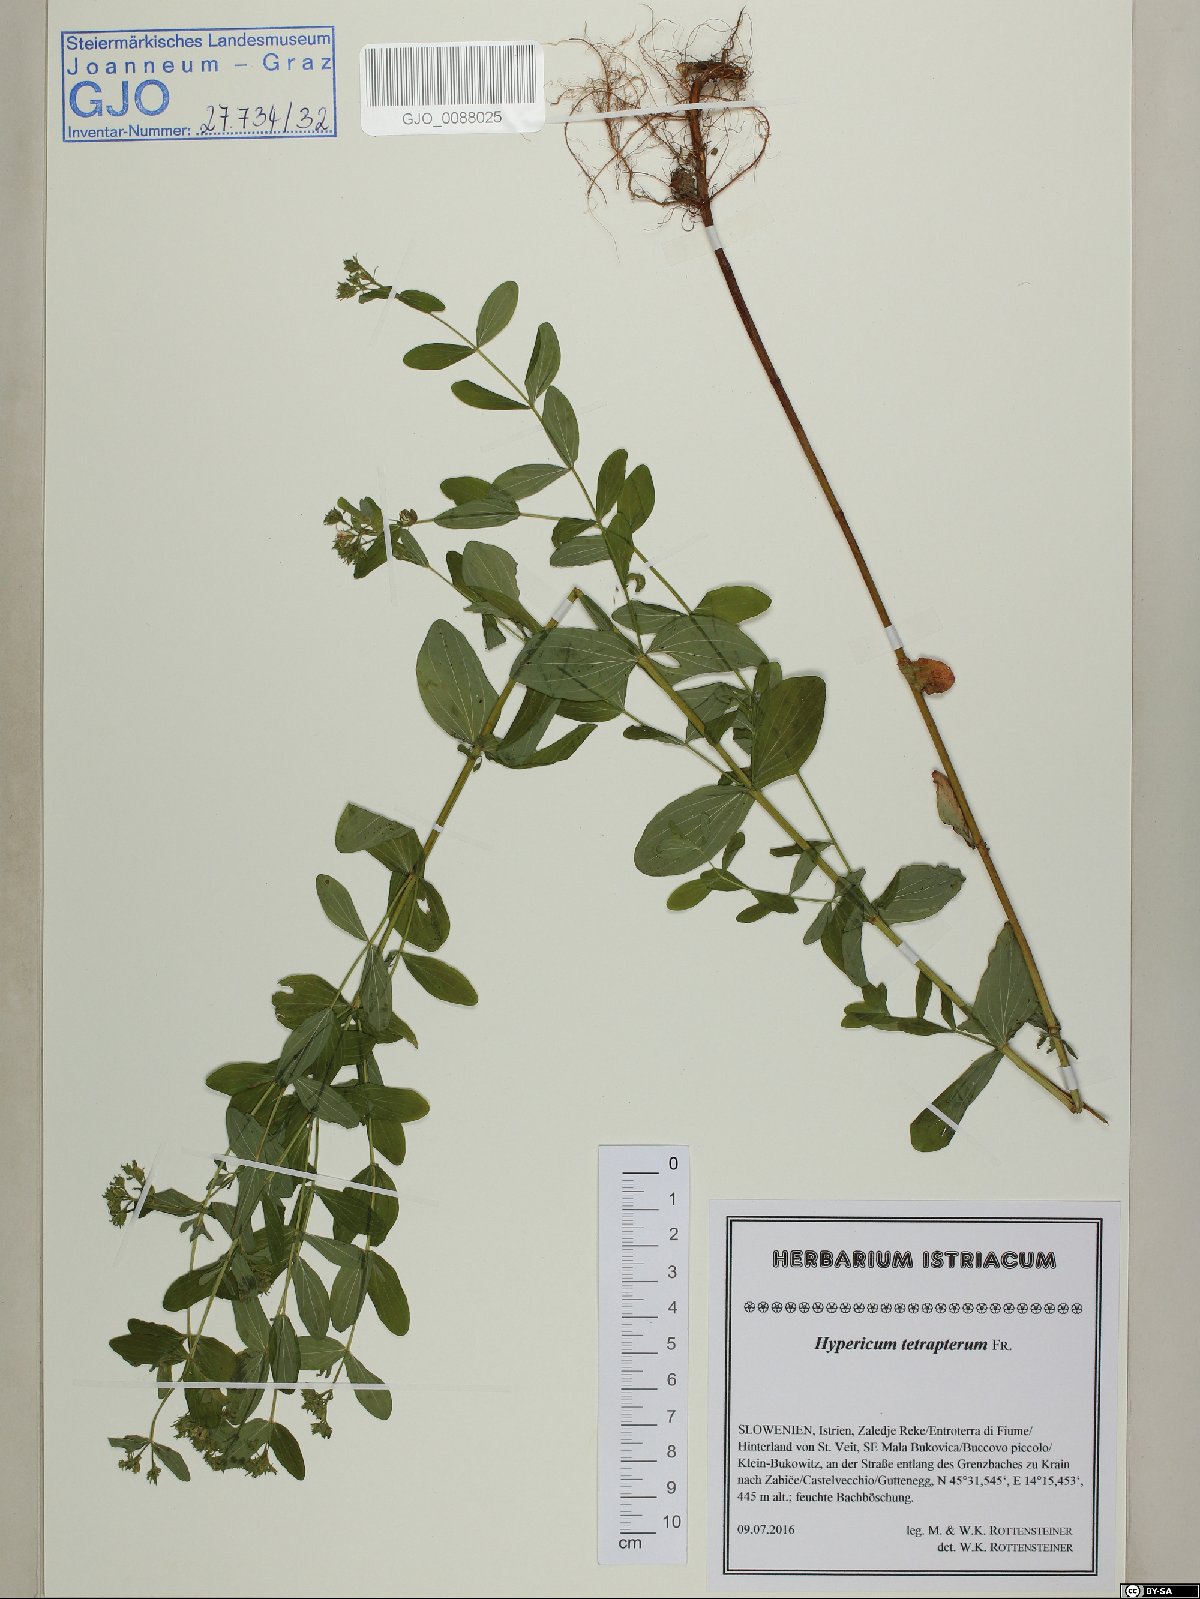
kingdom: Plantae
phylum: Tracheophyta
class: Magnoliopsida
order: Malpighiales
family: Hypericaceae
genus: Hypericum
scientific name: Hypericum tetrapterum
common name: Square-stalked st. john's-wort
